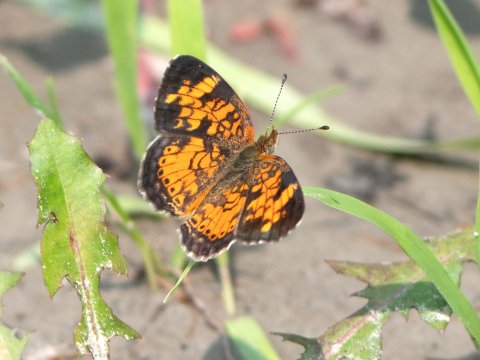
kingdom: Animalia
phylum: Arthropoda
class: Insecta
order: Lepidoptera
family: Nymphalidae
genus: Phyciodes
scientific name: Phyciodes
